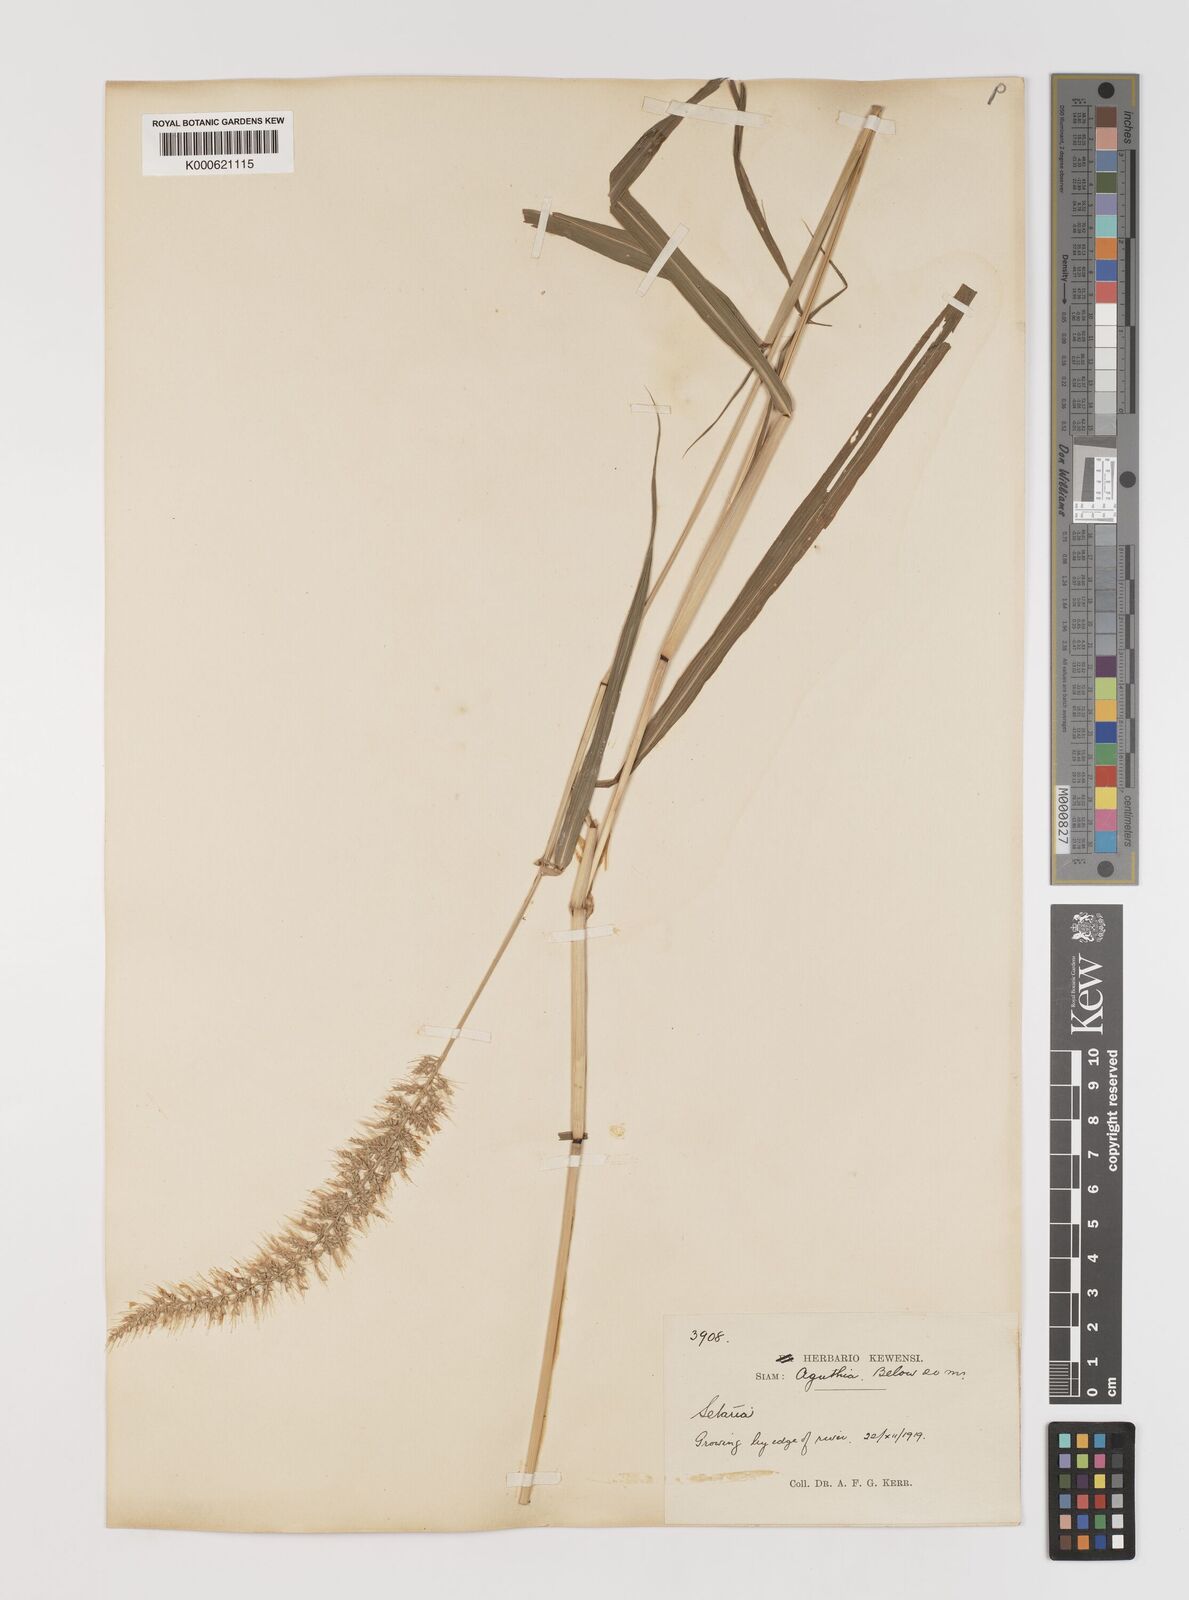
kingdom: Plantae
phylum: Tracheophyta
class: Liliopsida
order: Poales
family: Poaceae
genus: Setaria
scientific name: Setaria viridis
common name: Green bristlegrass
